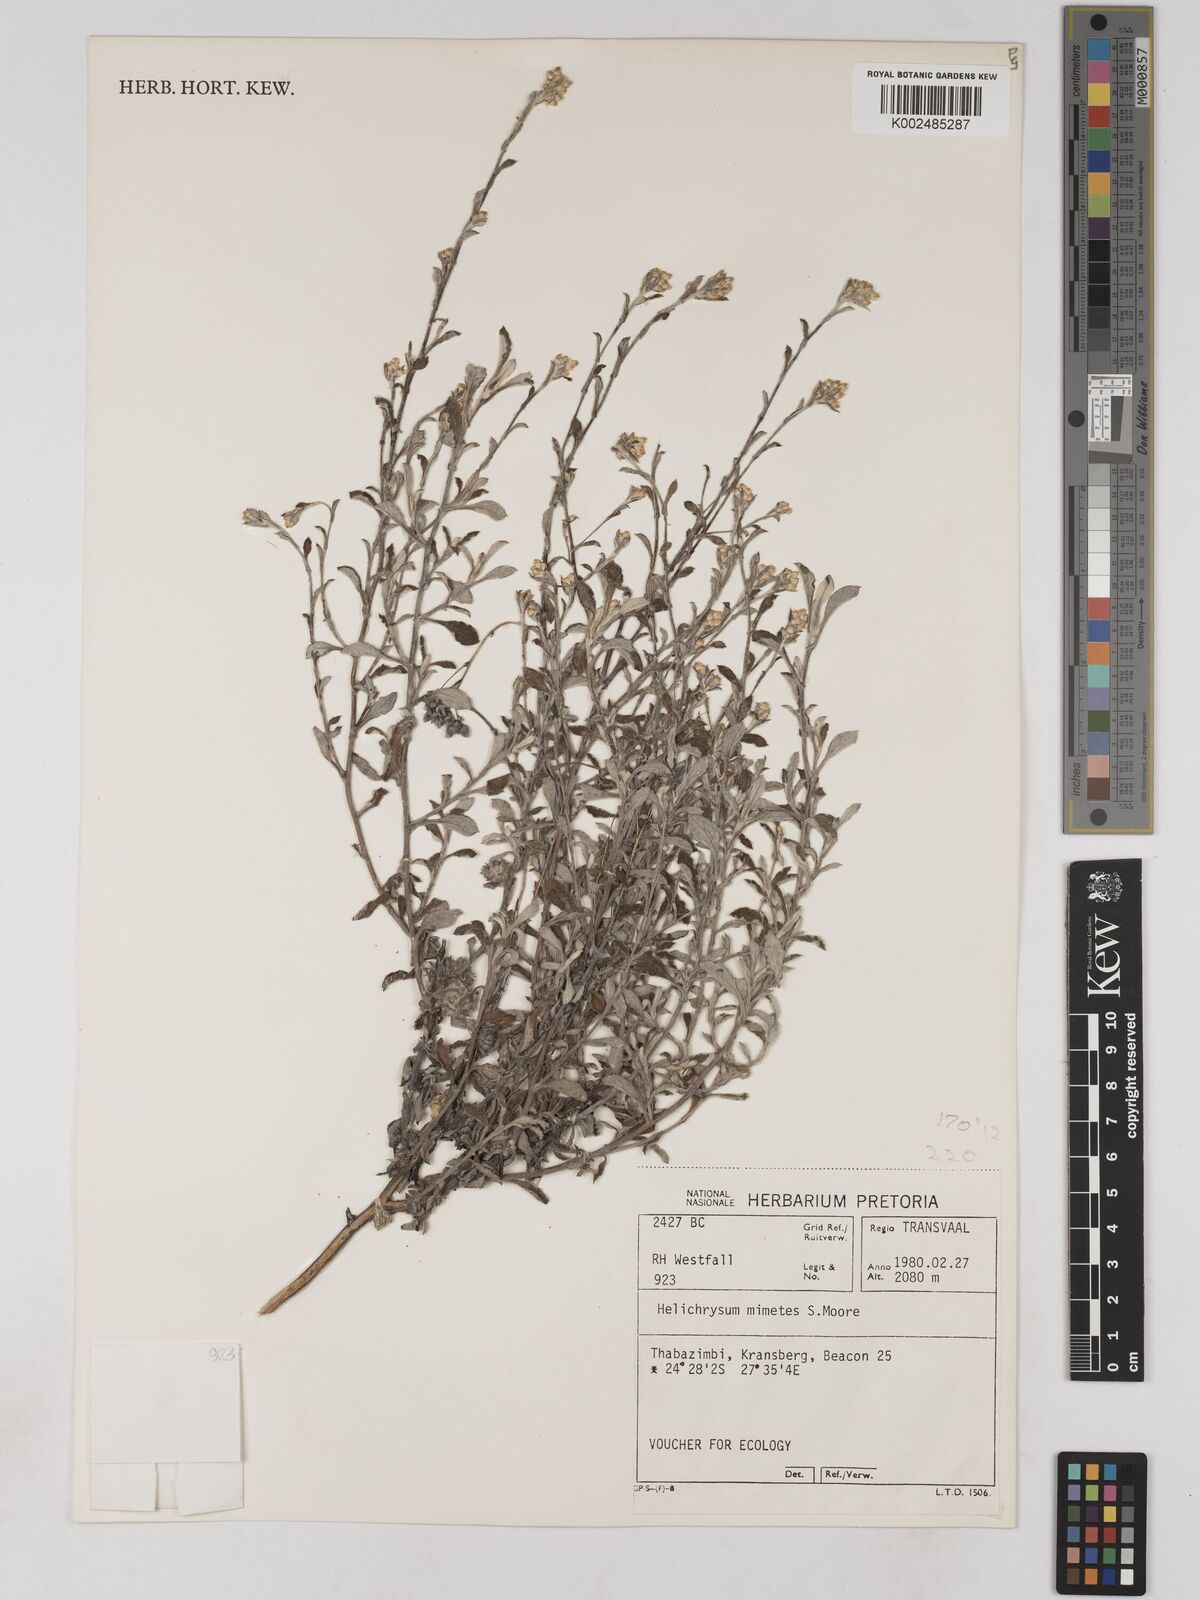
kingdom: Plantae
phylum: Tracheophyta
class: Magnoliopsida
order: Asterales
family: Asteraceae
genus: Helichrysum
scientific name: Helichrysum mimetes
